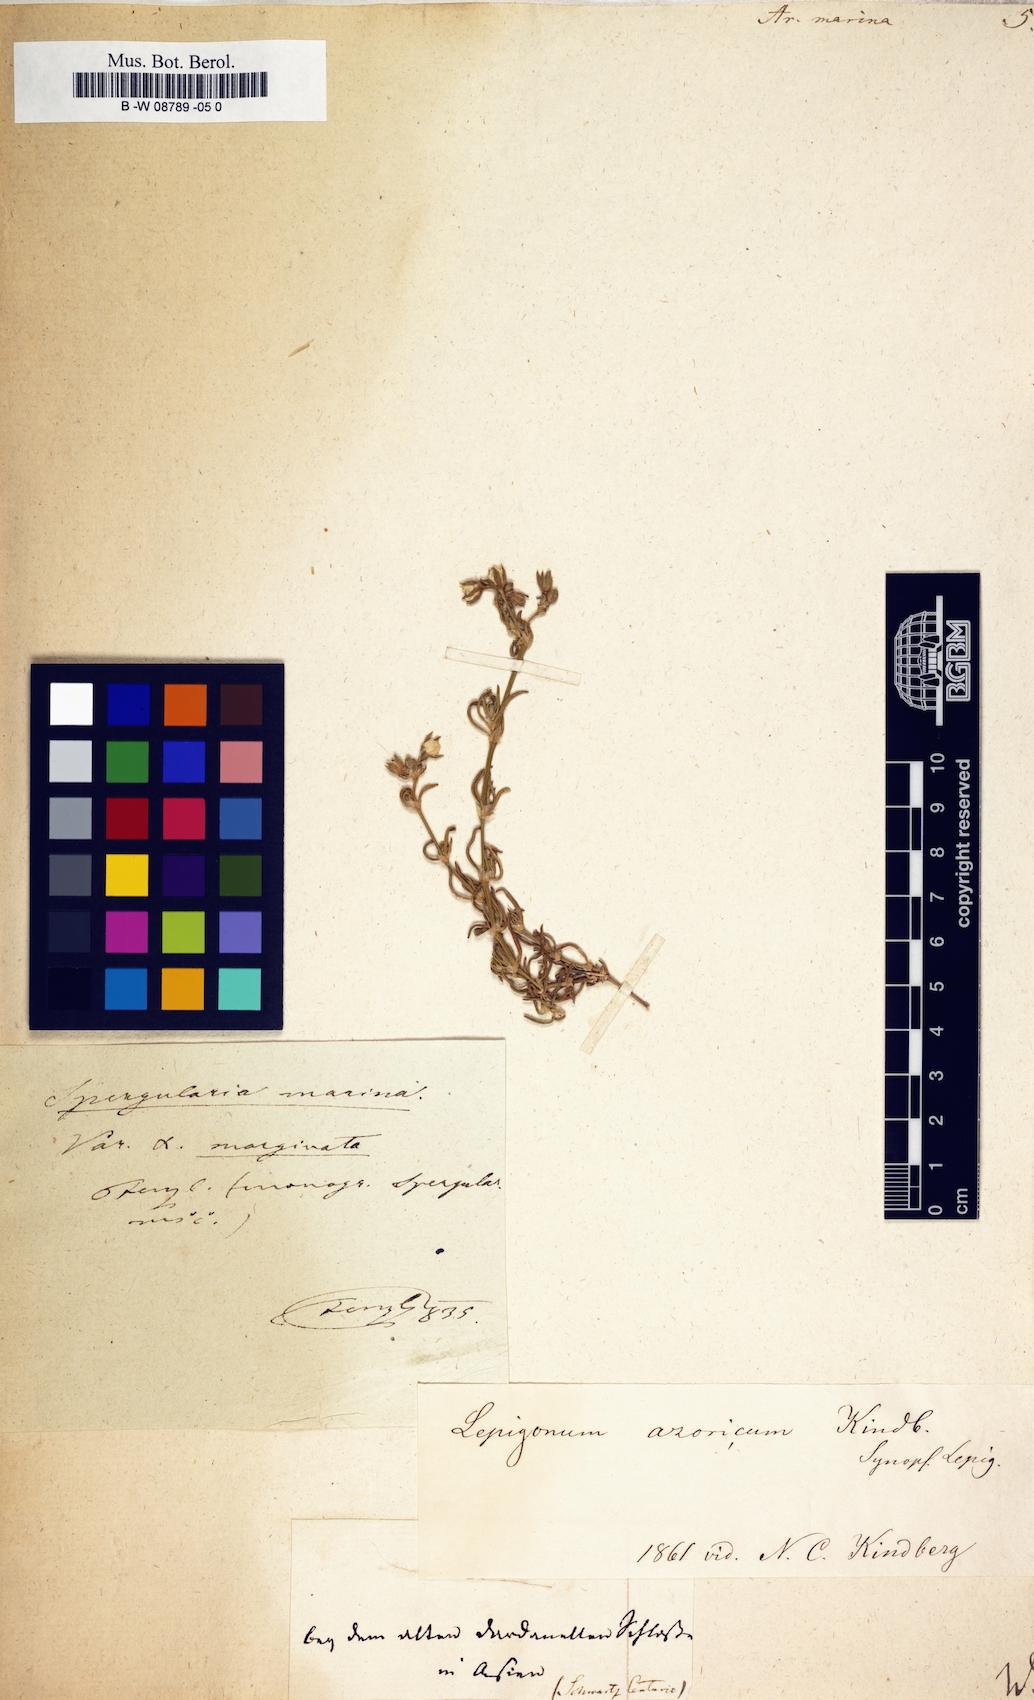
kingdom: Plantae
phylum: Tracheophyta
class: Magnoliopsida
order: Caryophyllales
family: Caryophyllaceae
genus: Arenaria
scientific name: Arenaria marina
